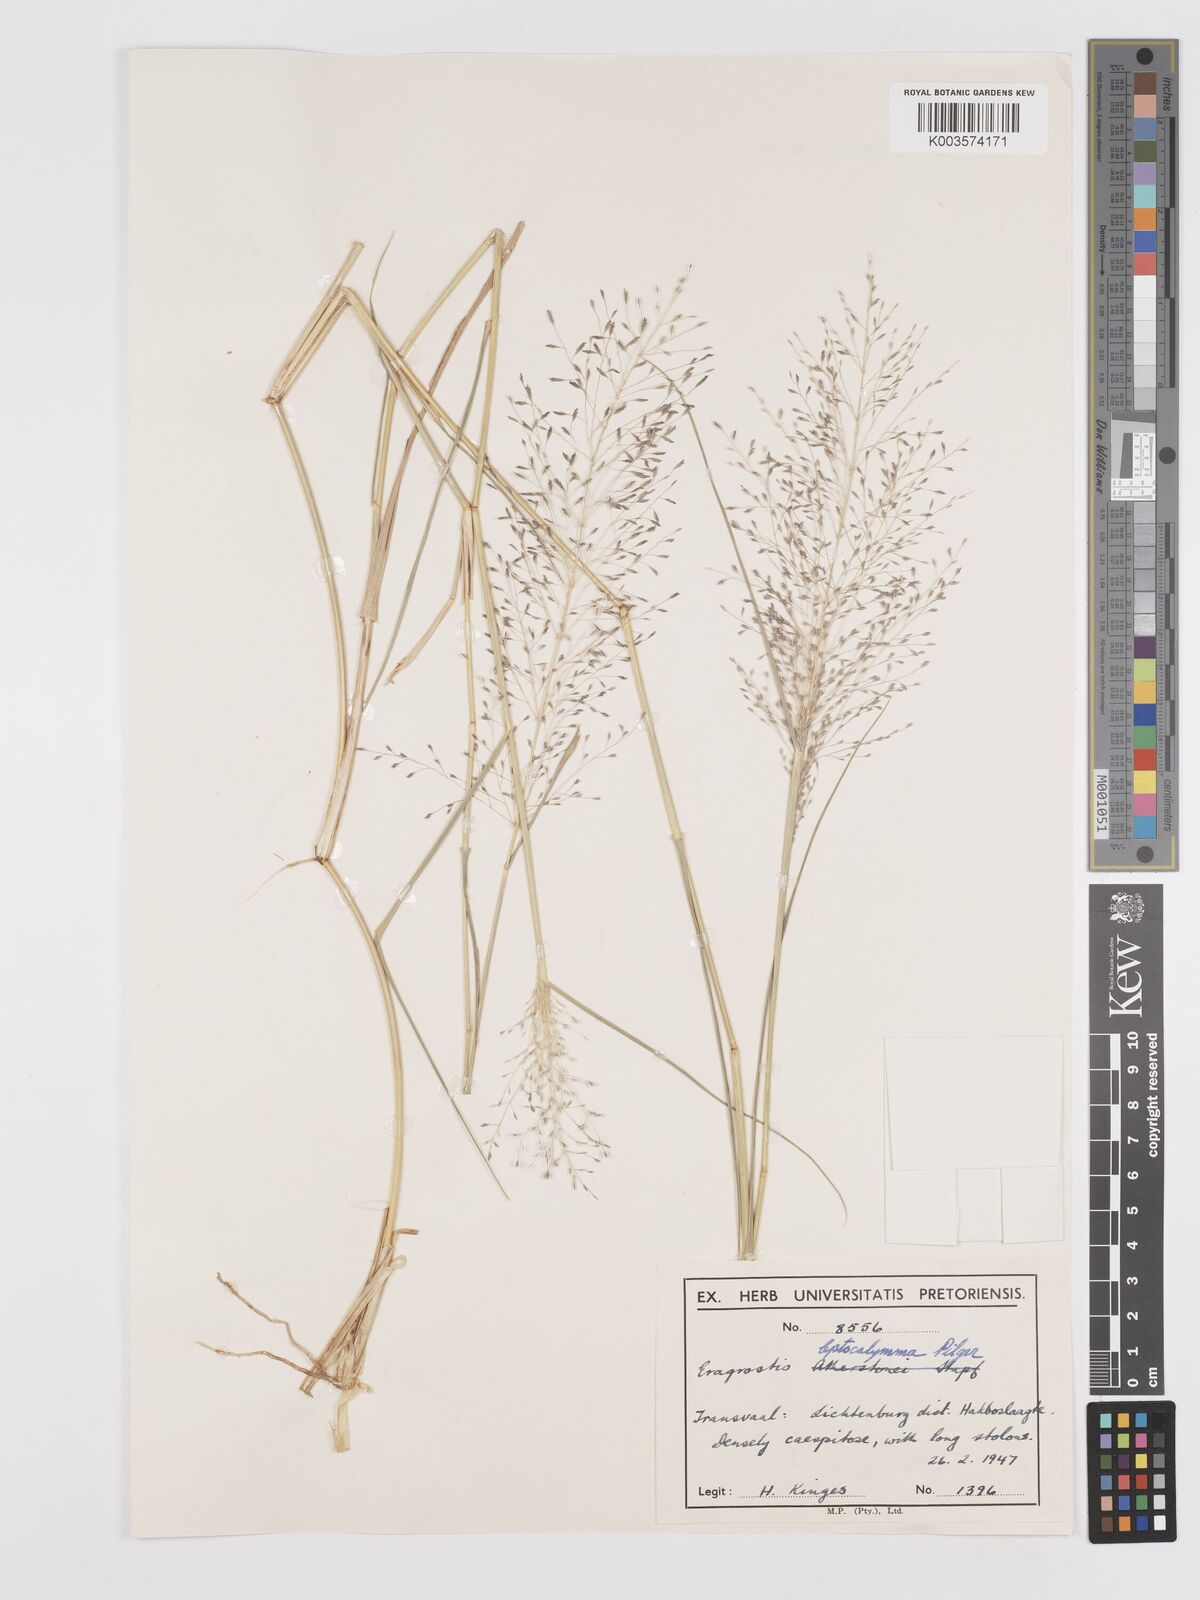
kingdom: Plantae
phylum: Tracheophyta
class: Liliopsida
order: Poales
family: Poaceae
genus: Eragrostis
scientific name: Eragrostis cylindriflora
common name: Cylinderflower lovegrass
